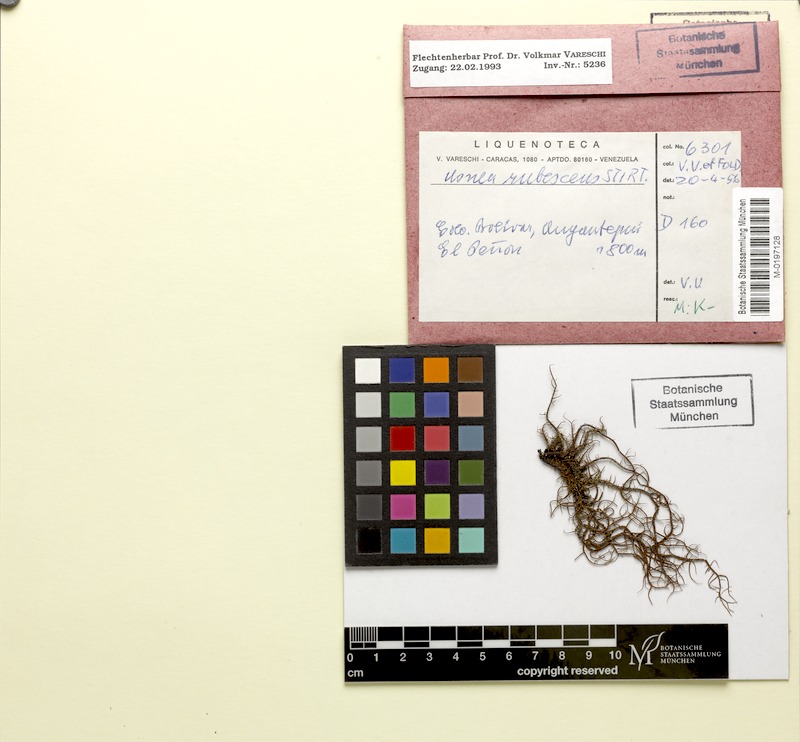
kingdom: Fungi
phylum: Ascomycota
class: Lecanoromycetes
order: Lecanorales
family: Parmeliaceae
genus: Usnea
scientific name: Usnea rubrotincta
